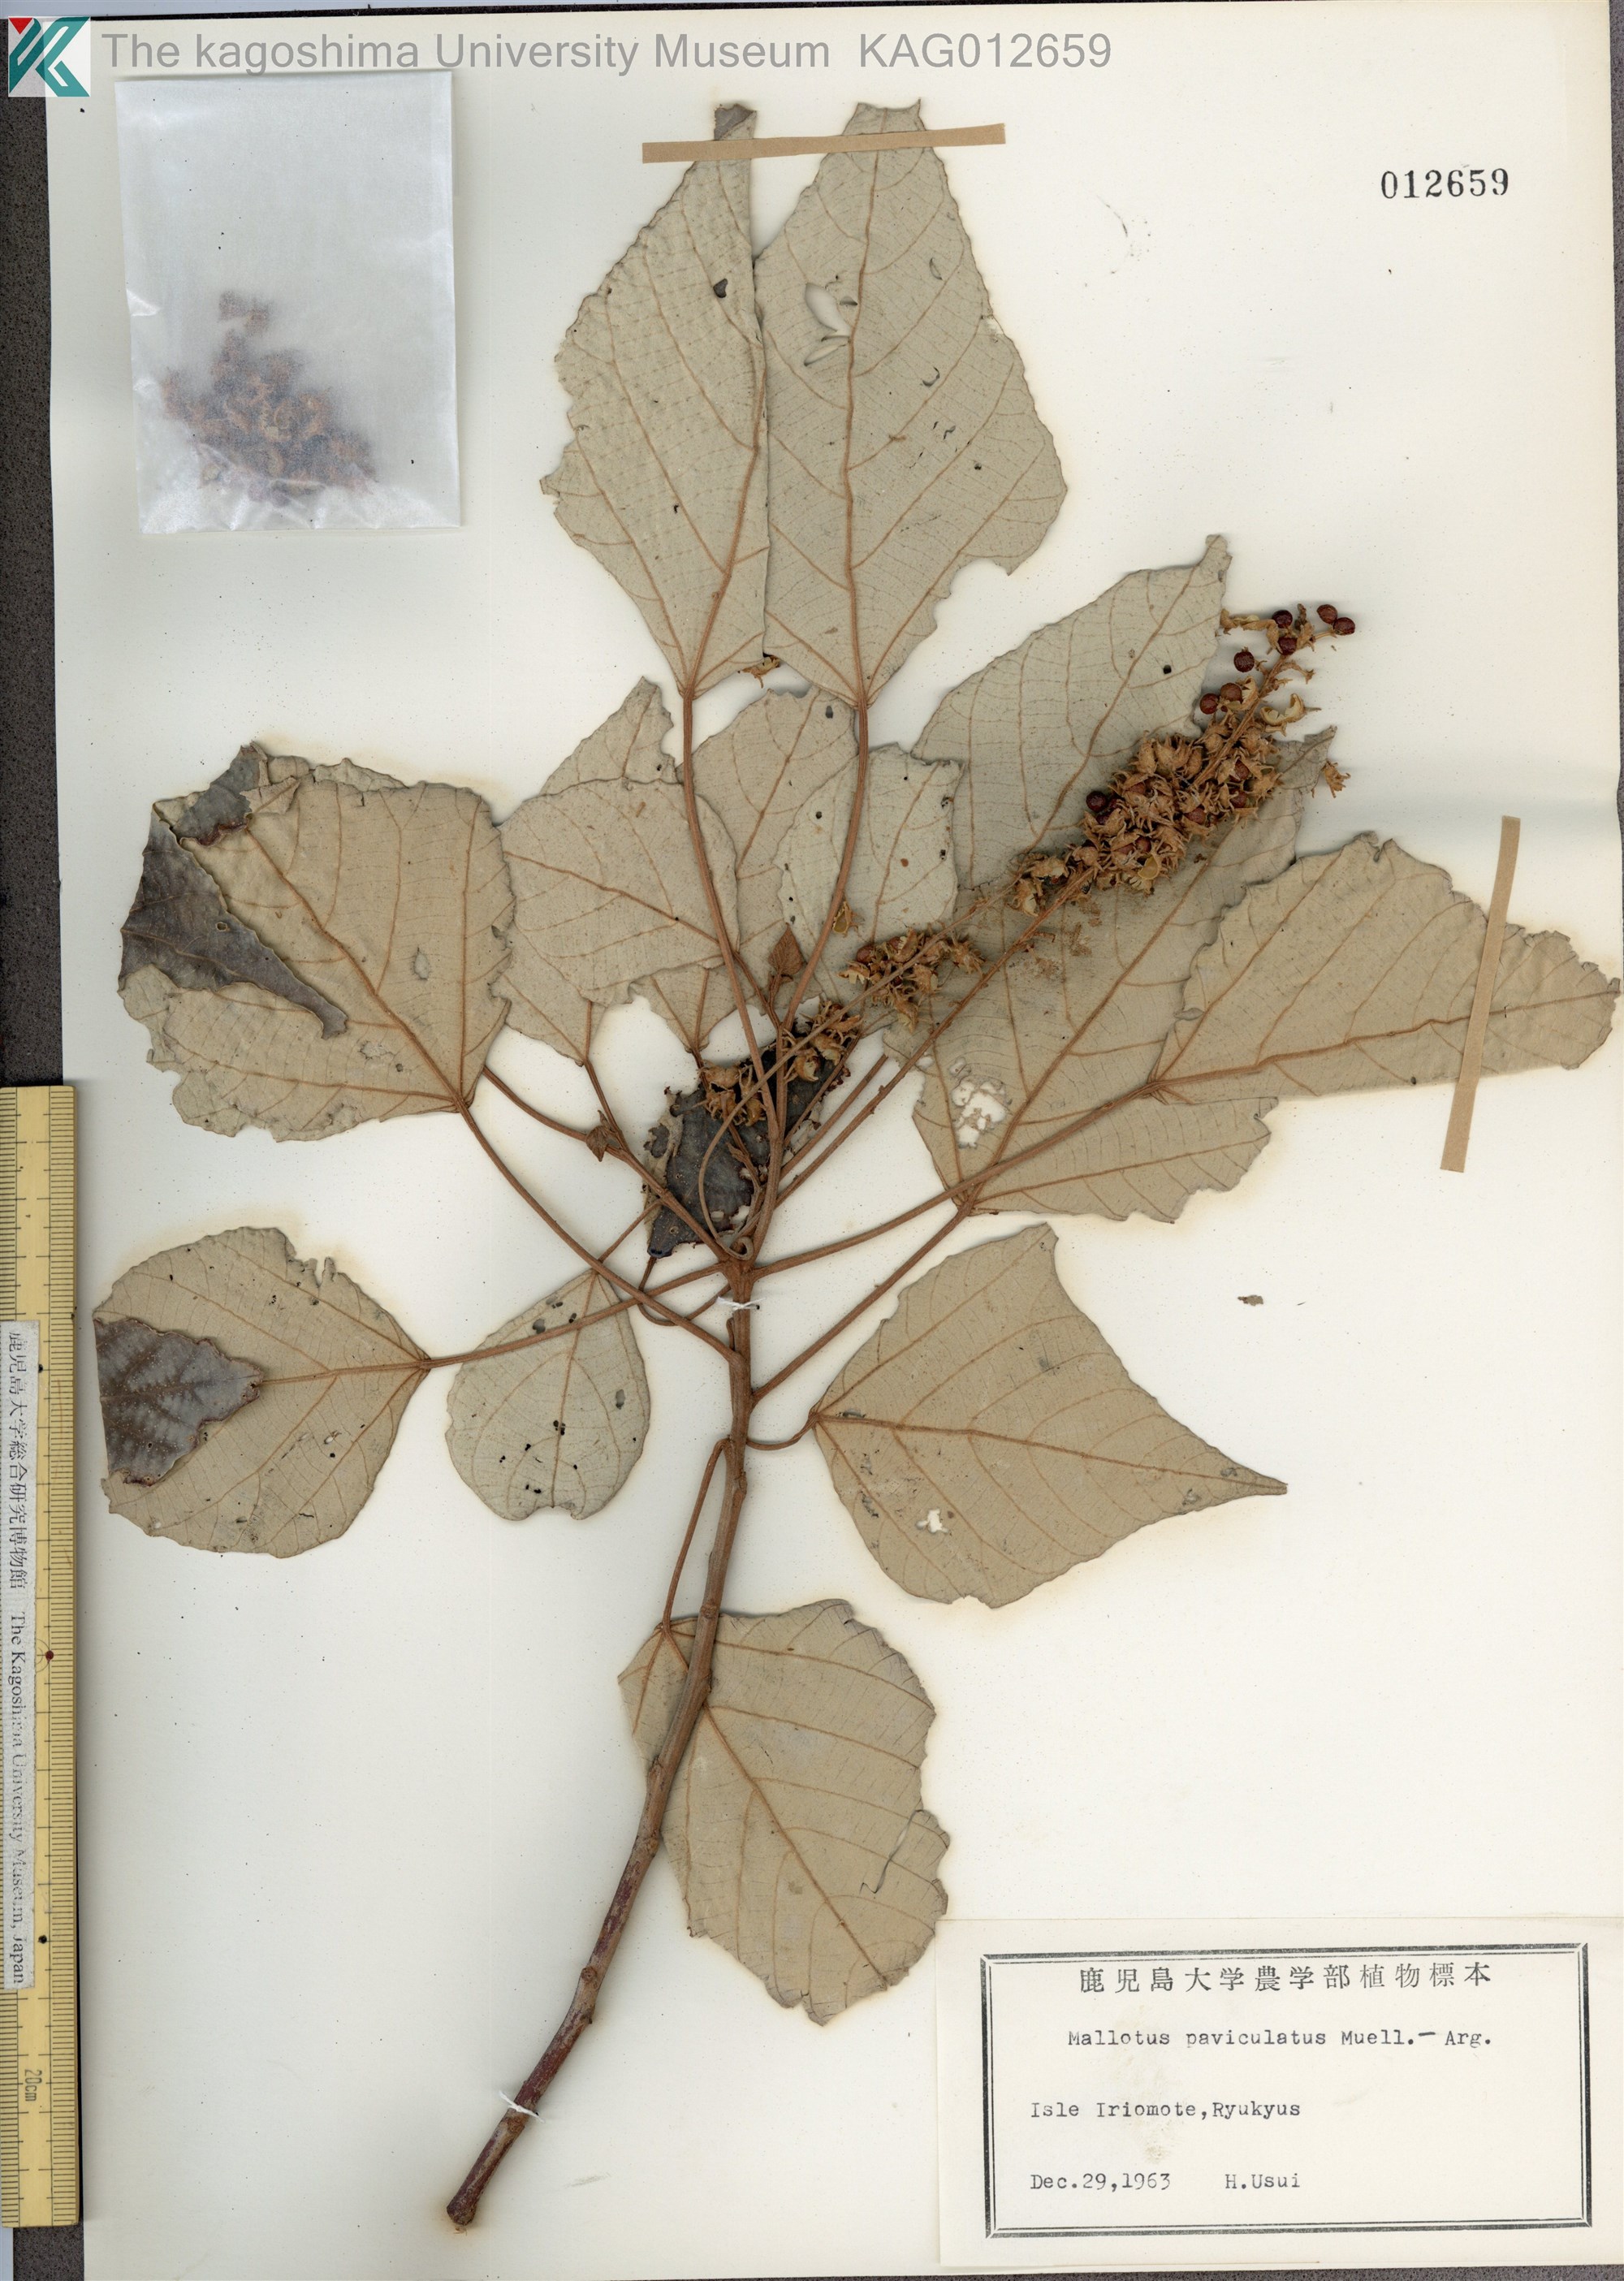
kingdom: Plantae
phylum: Tracheophyta
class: Magnoliopsida
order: Malpighiales
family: Euphorbiaceae
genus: Mallotus
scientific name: Mallotus paniculatus
